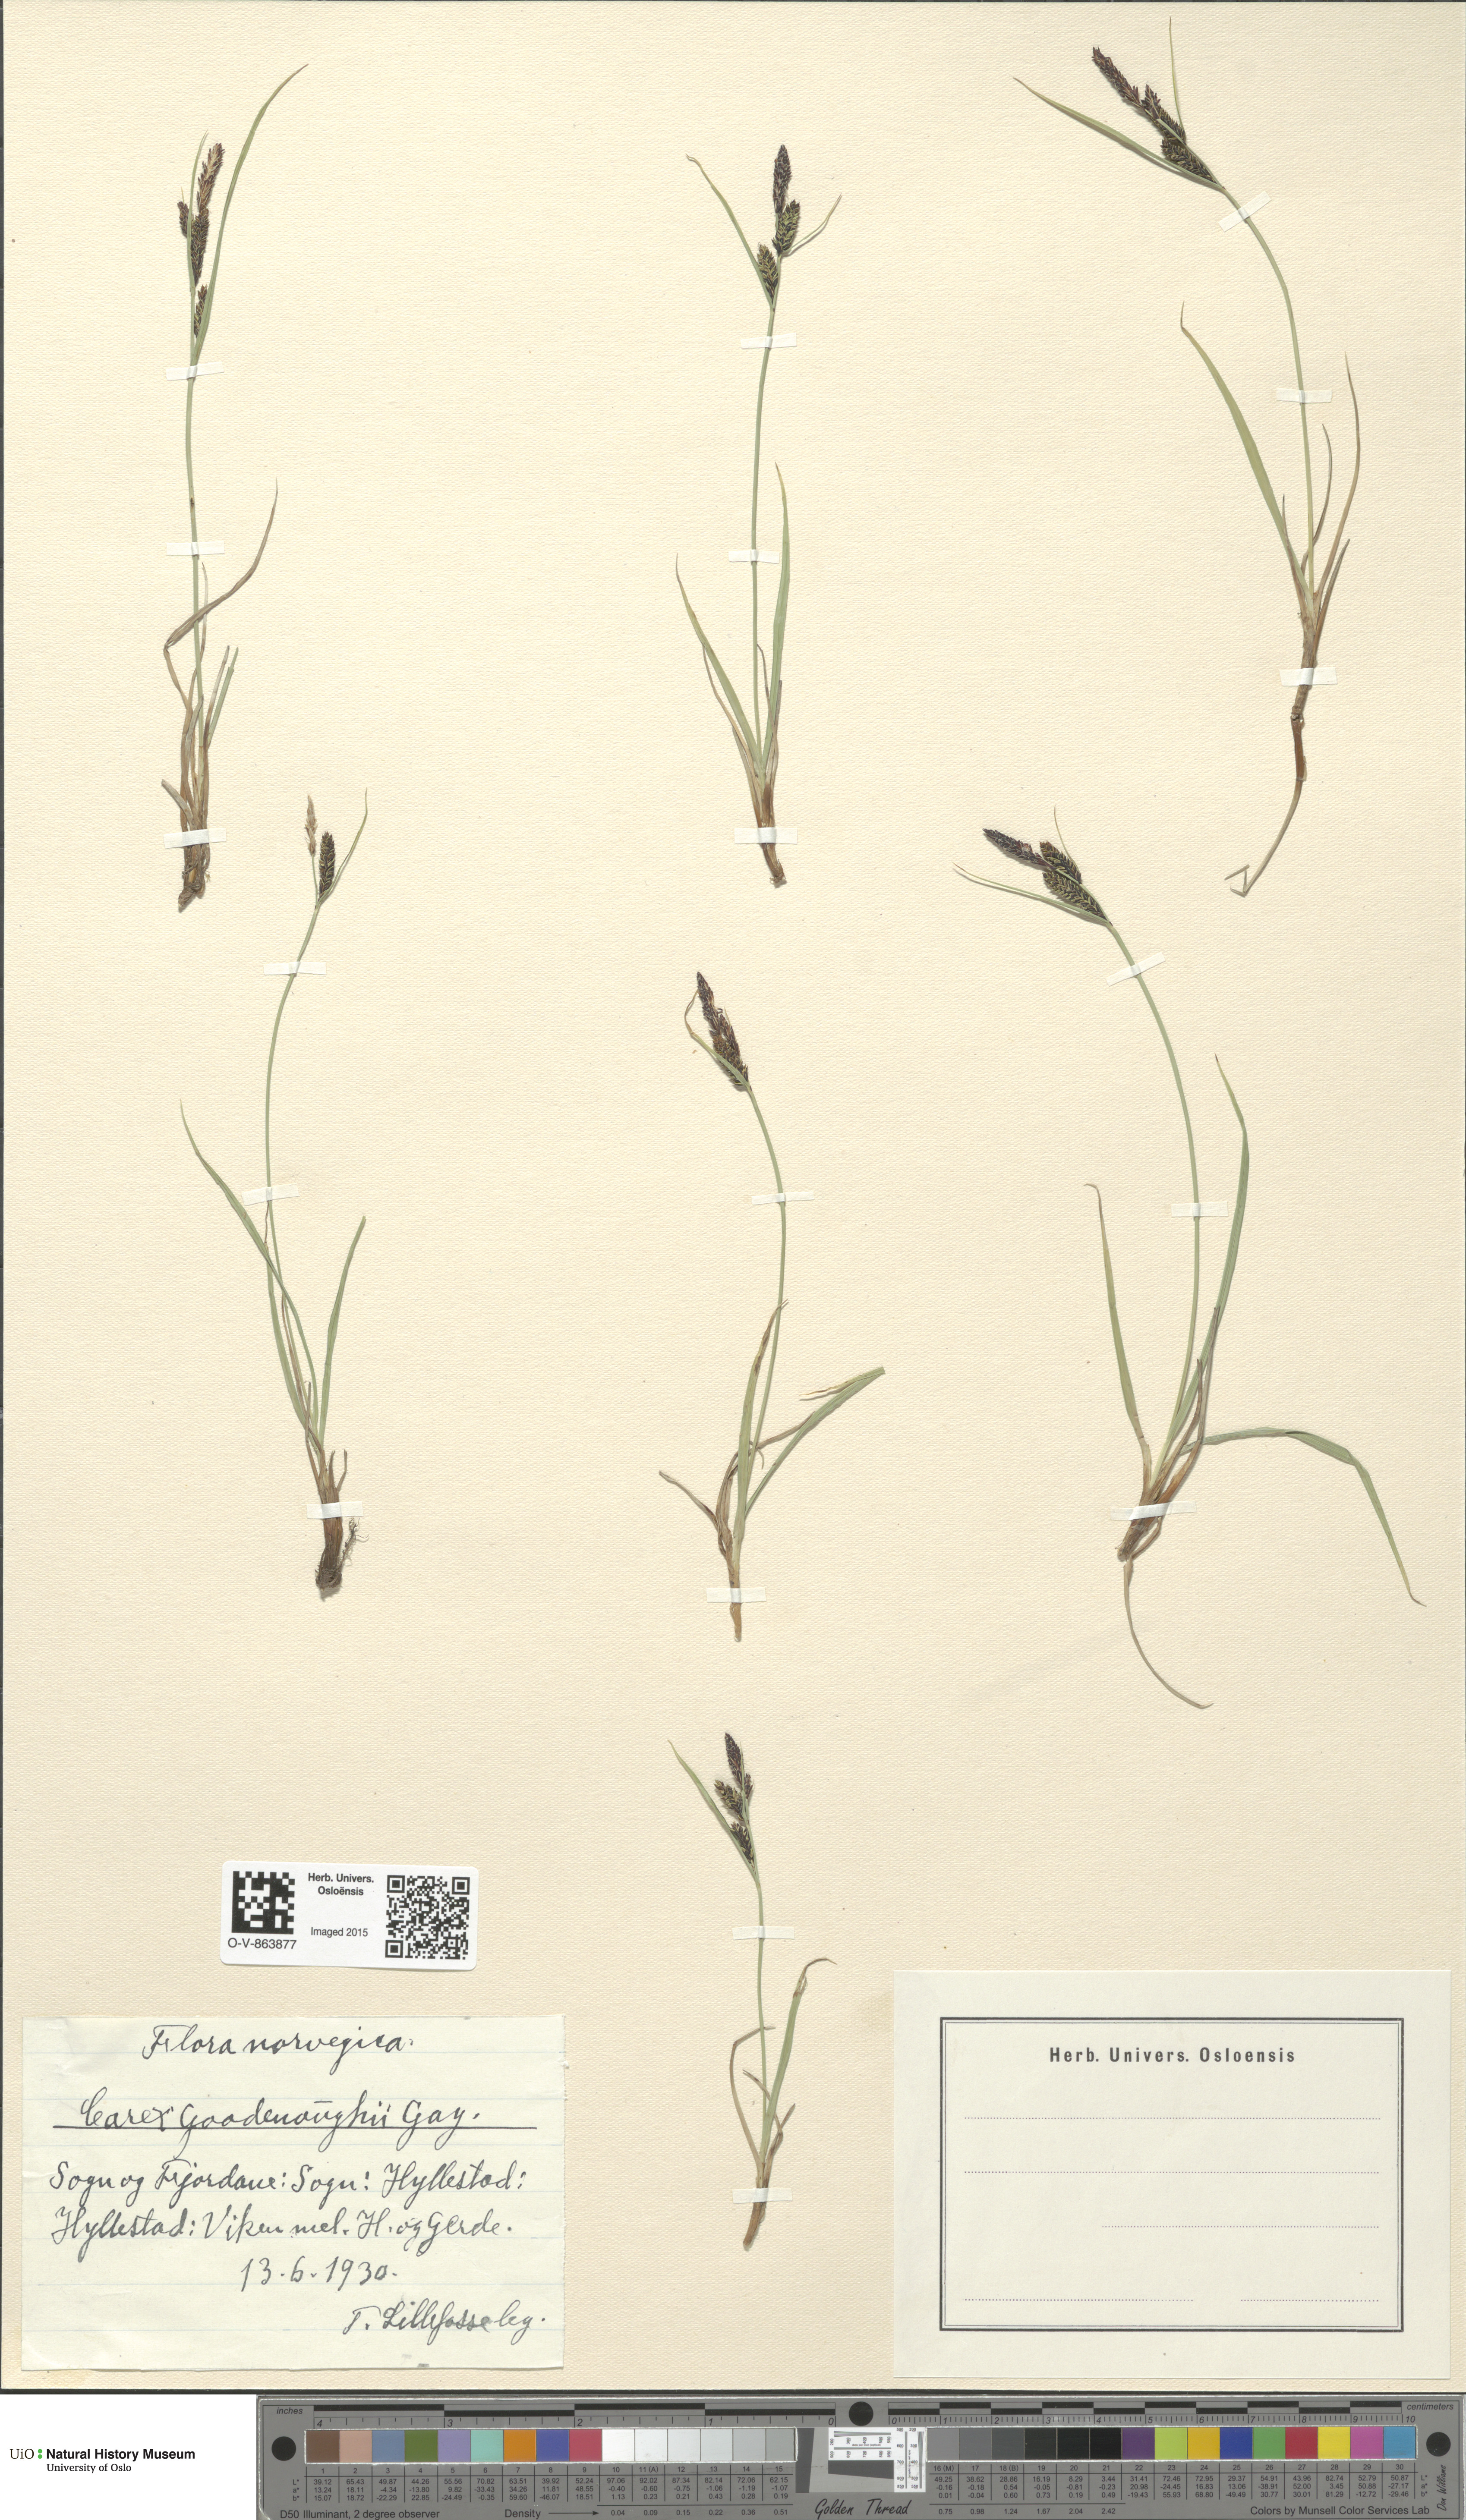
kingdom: Plantae
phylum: Tracheophyta
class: Liliopsida
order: Poales
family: Cyperaceae
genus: Carex
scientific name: Carex nigra
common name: Common sedge
